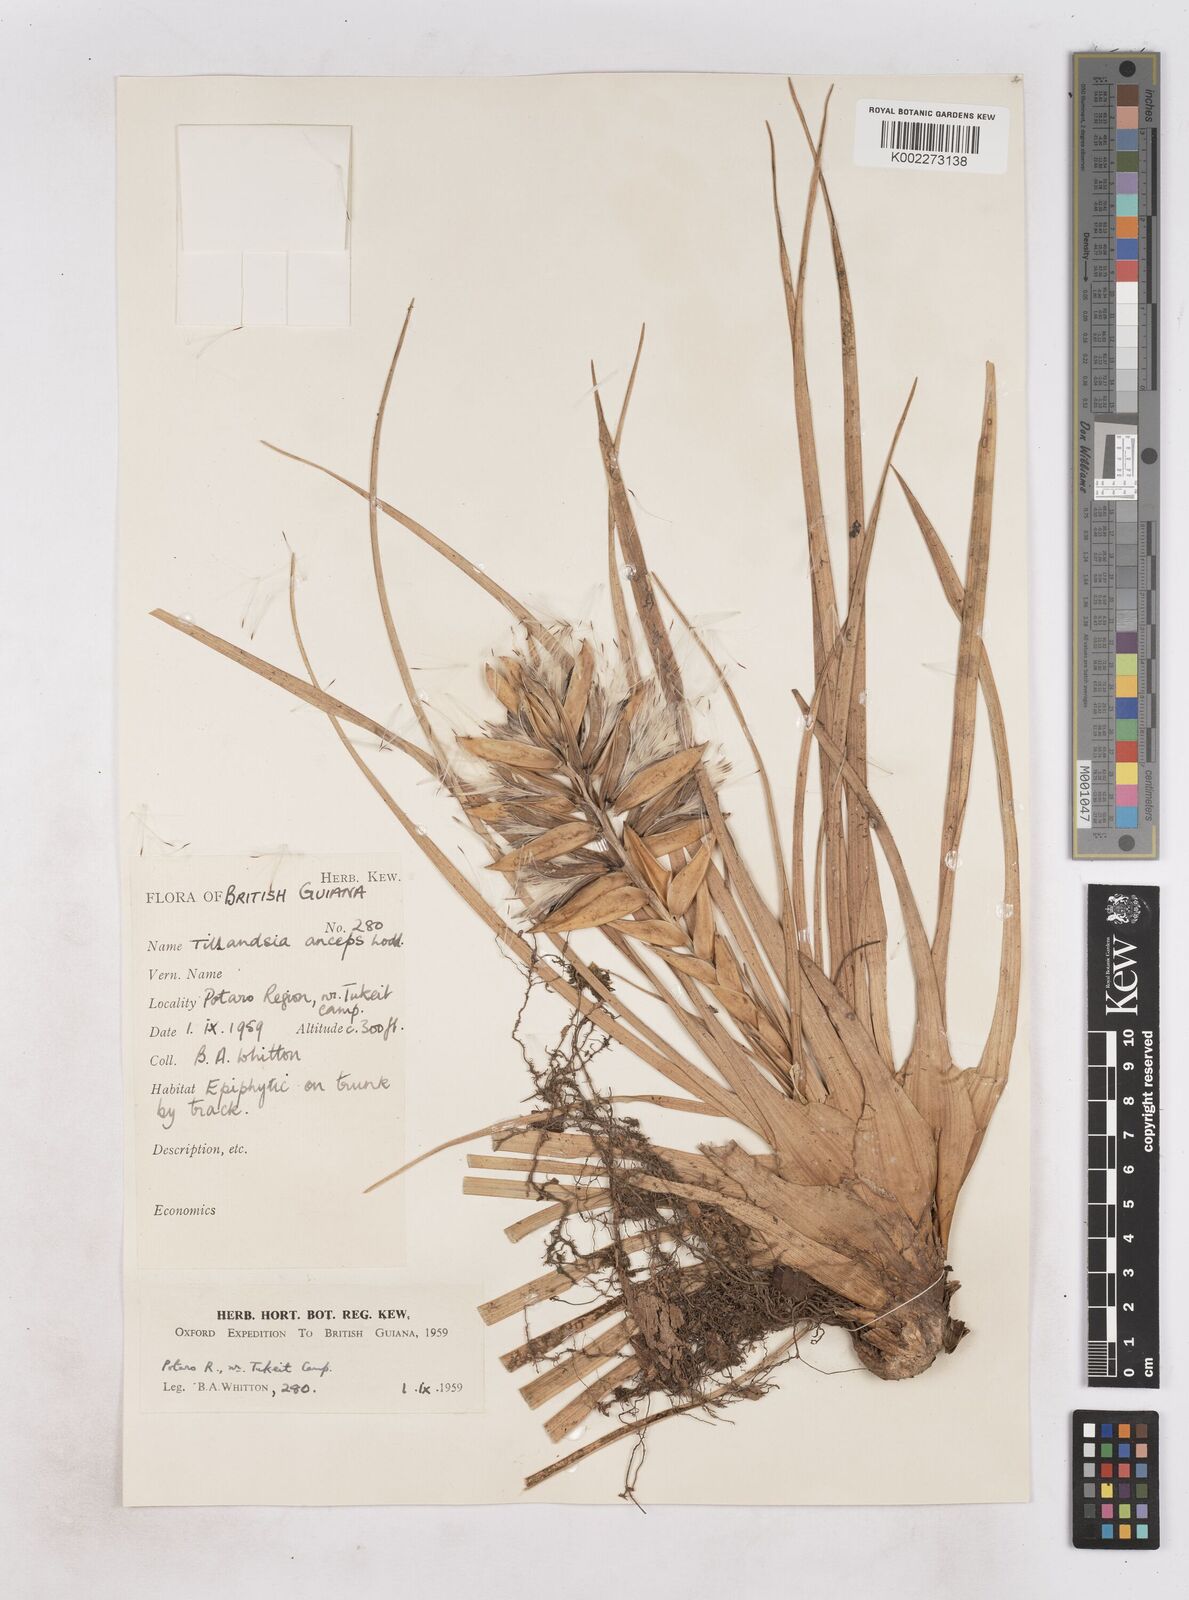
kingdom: Plantae
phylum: Tracheophyta
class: Liliopsida
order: Poales
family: Bromeliaceae
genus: Wallisia
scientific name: Wallisia anceps
